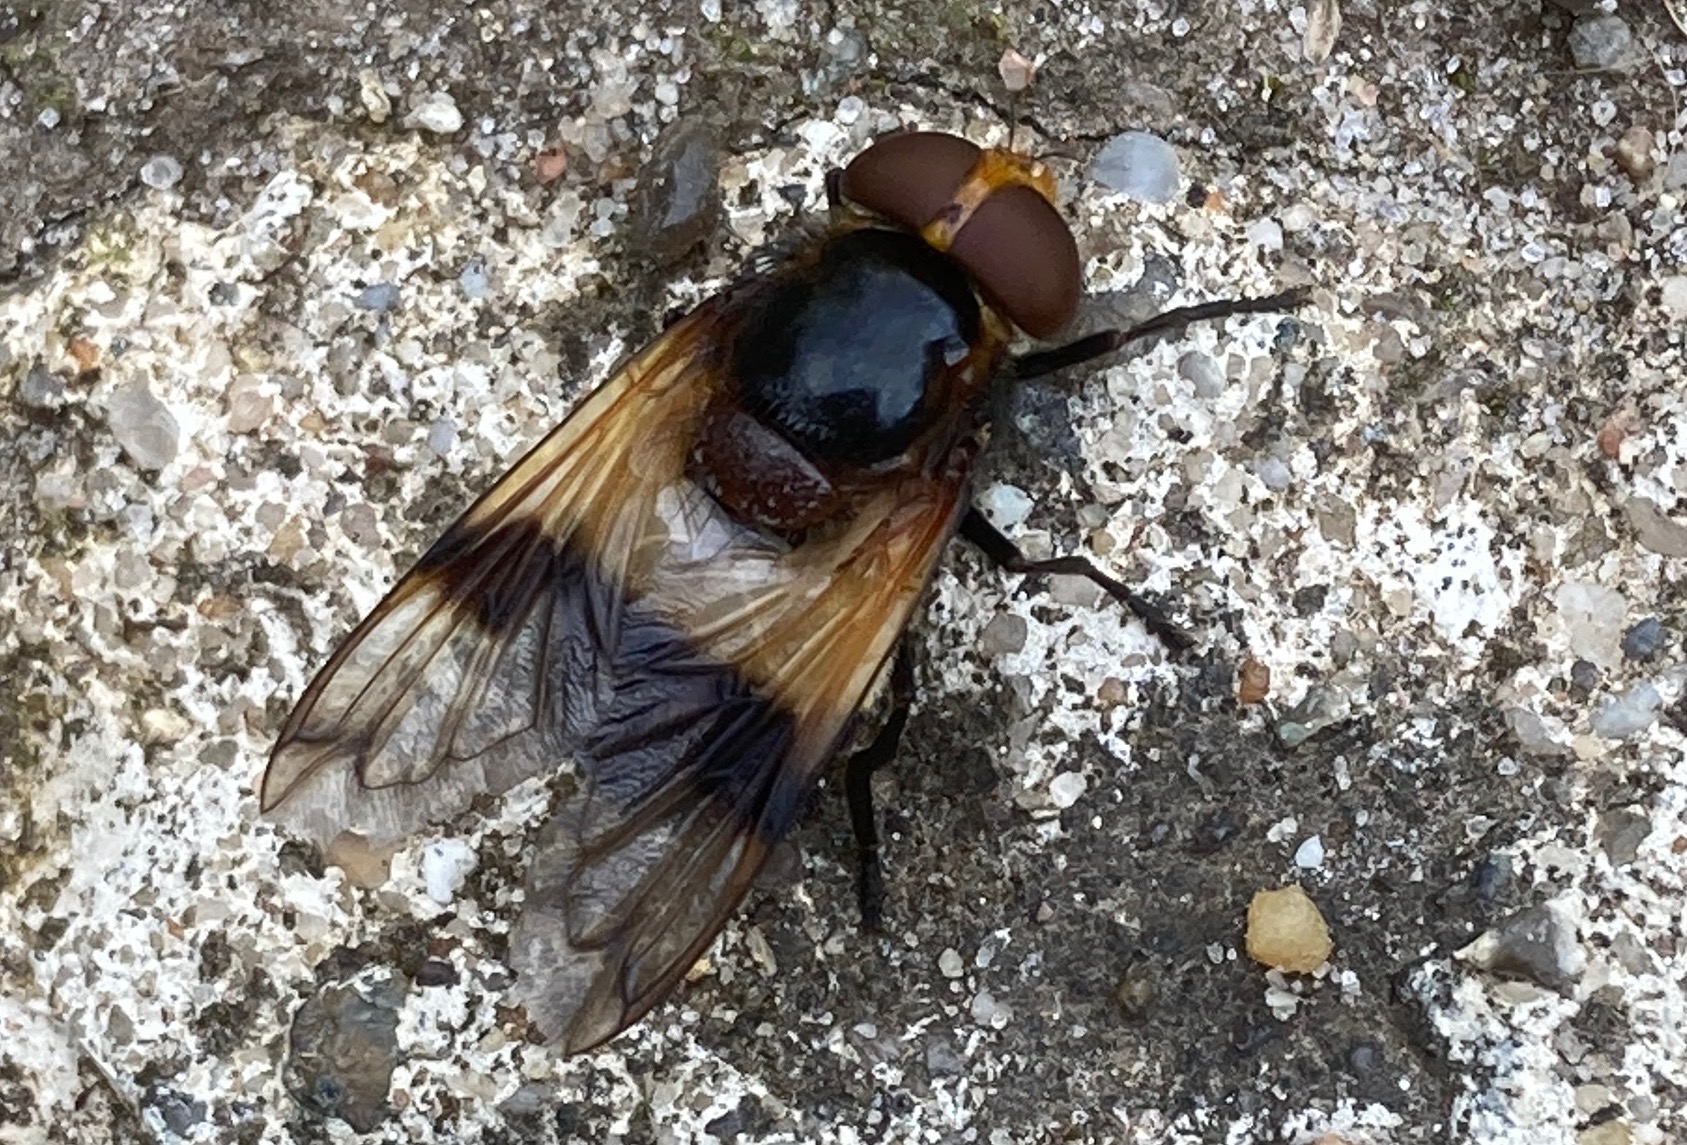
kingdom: Animalia
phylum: Arthropoda
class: Insecta
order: Diptera
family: Syrphidae
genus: Volucella
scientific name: Volucella pellucens
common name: Hvidbåndet humlesvirreflue
